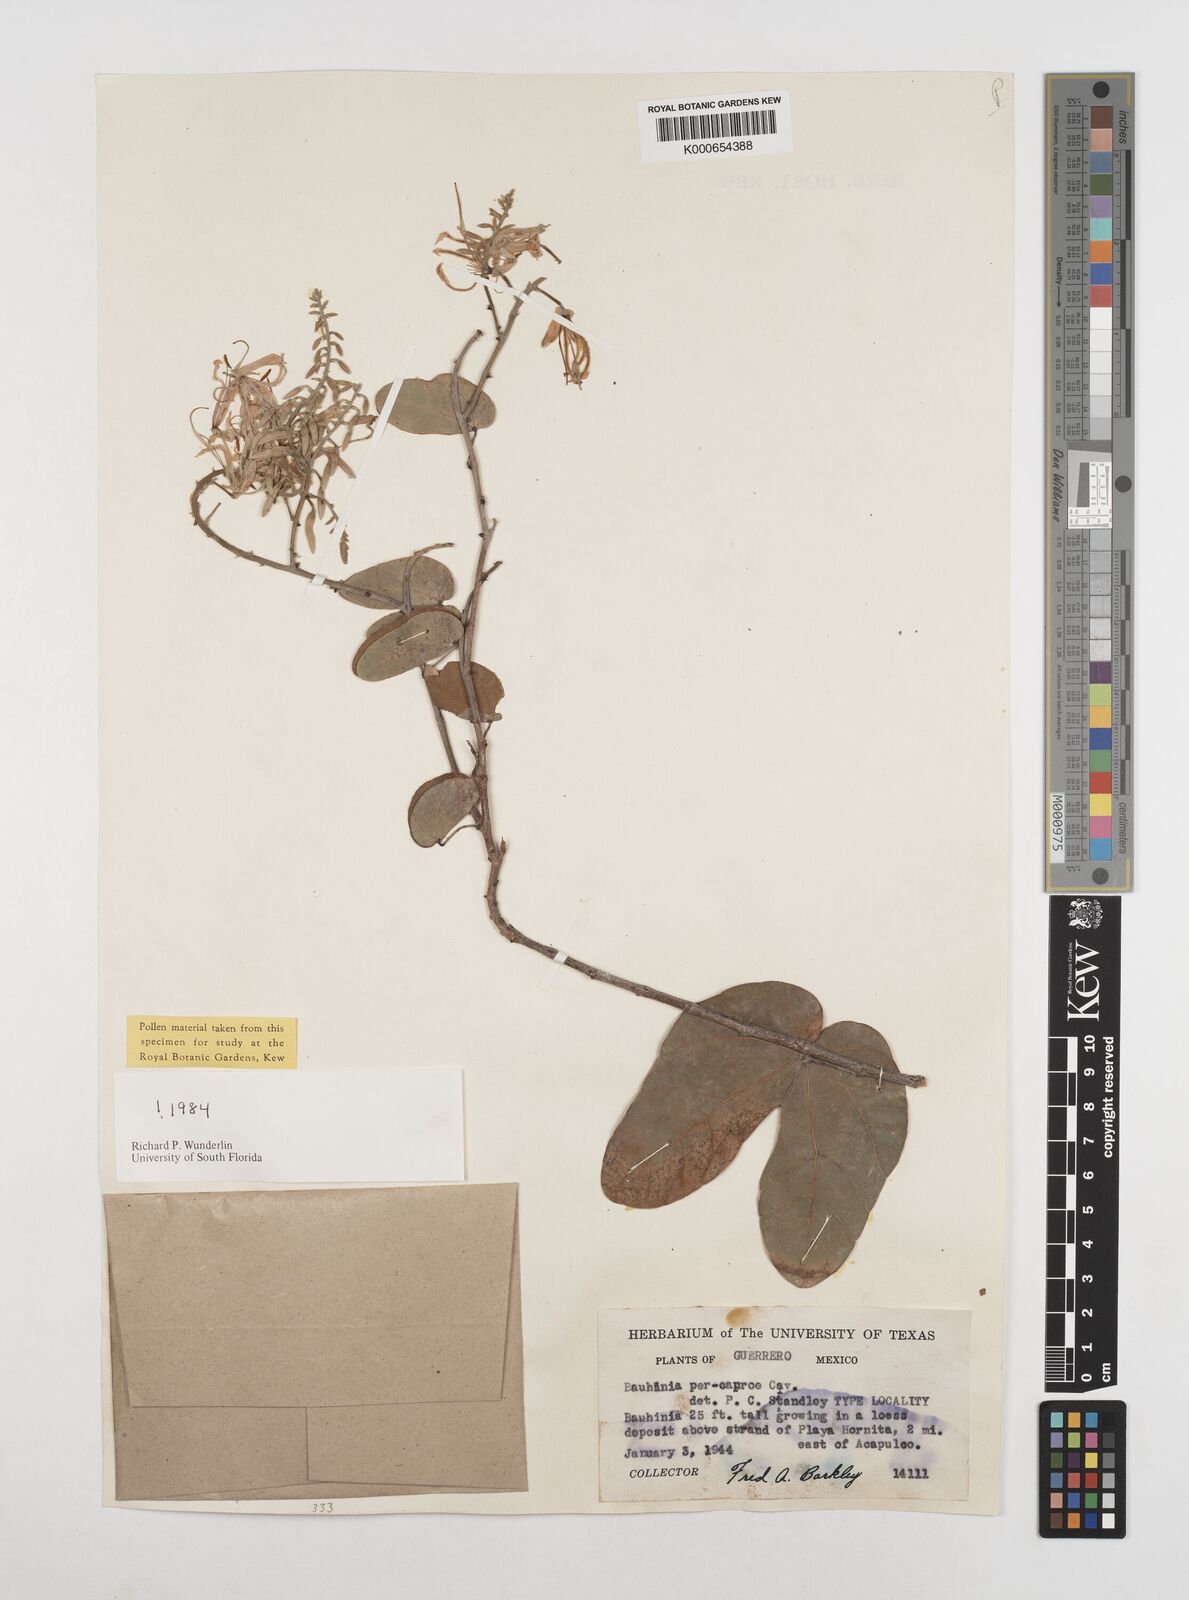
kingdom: Plantae
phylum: Tracheophyta
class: Magnoliopsida
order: Fabales
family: Fabaceae
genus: Bauhinia
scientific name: Bauhinia pes-caprae
